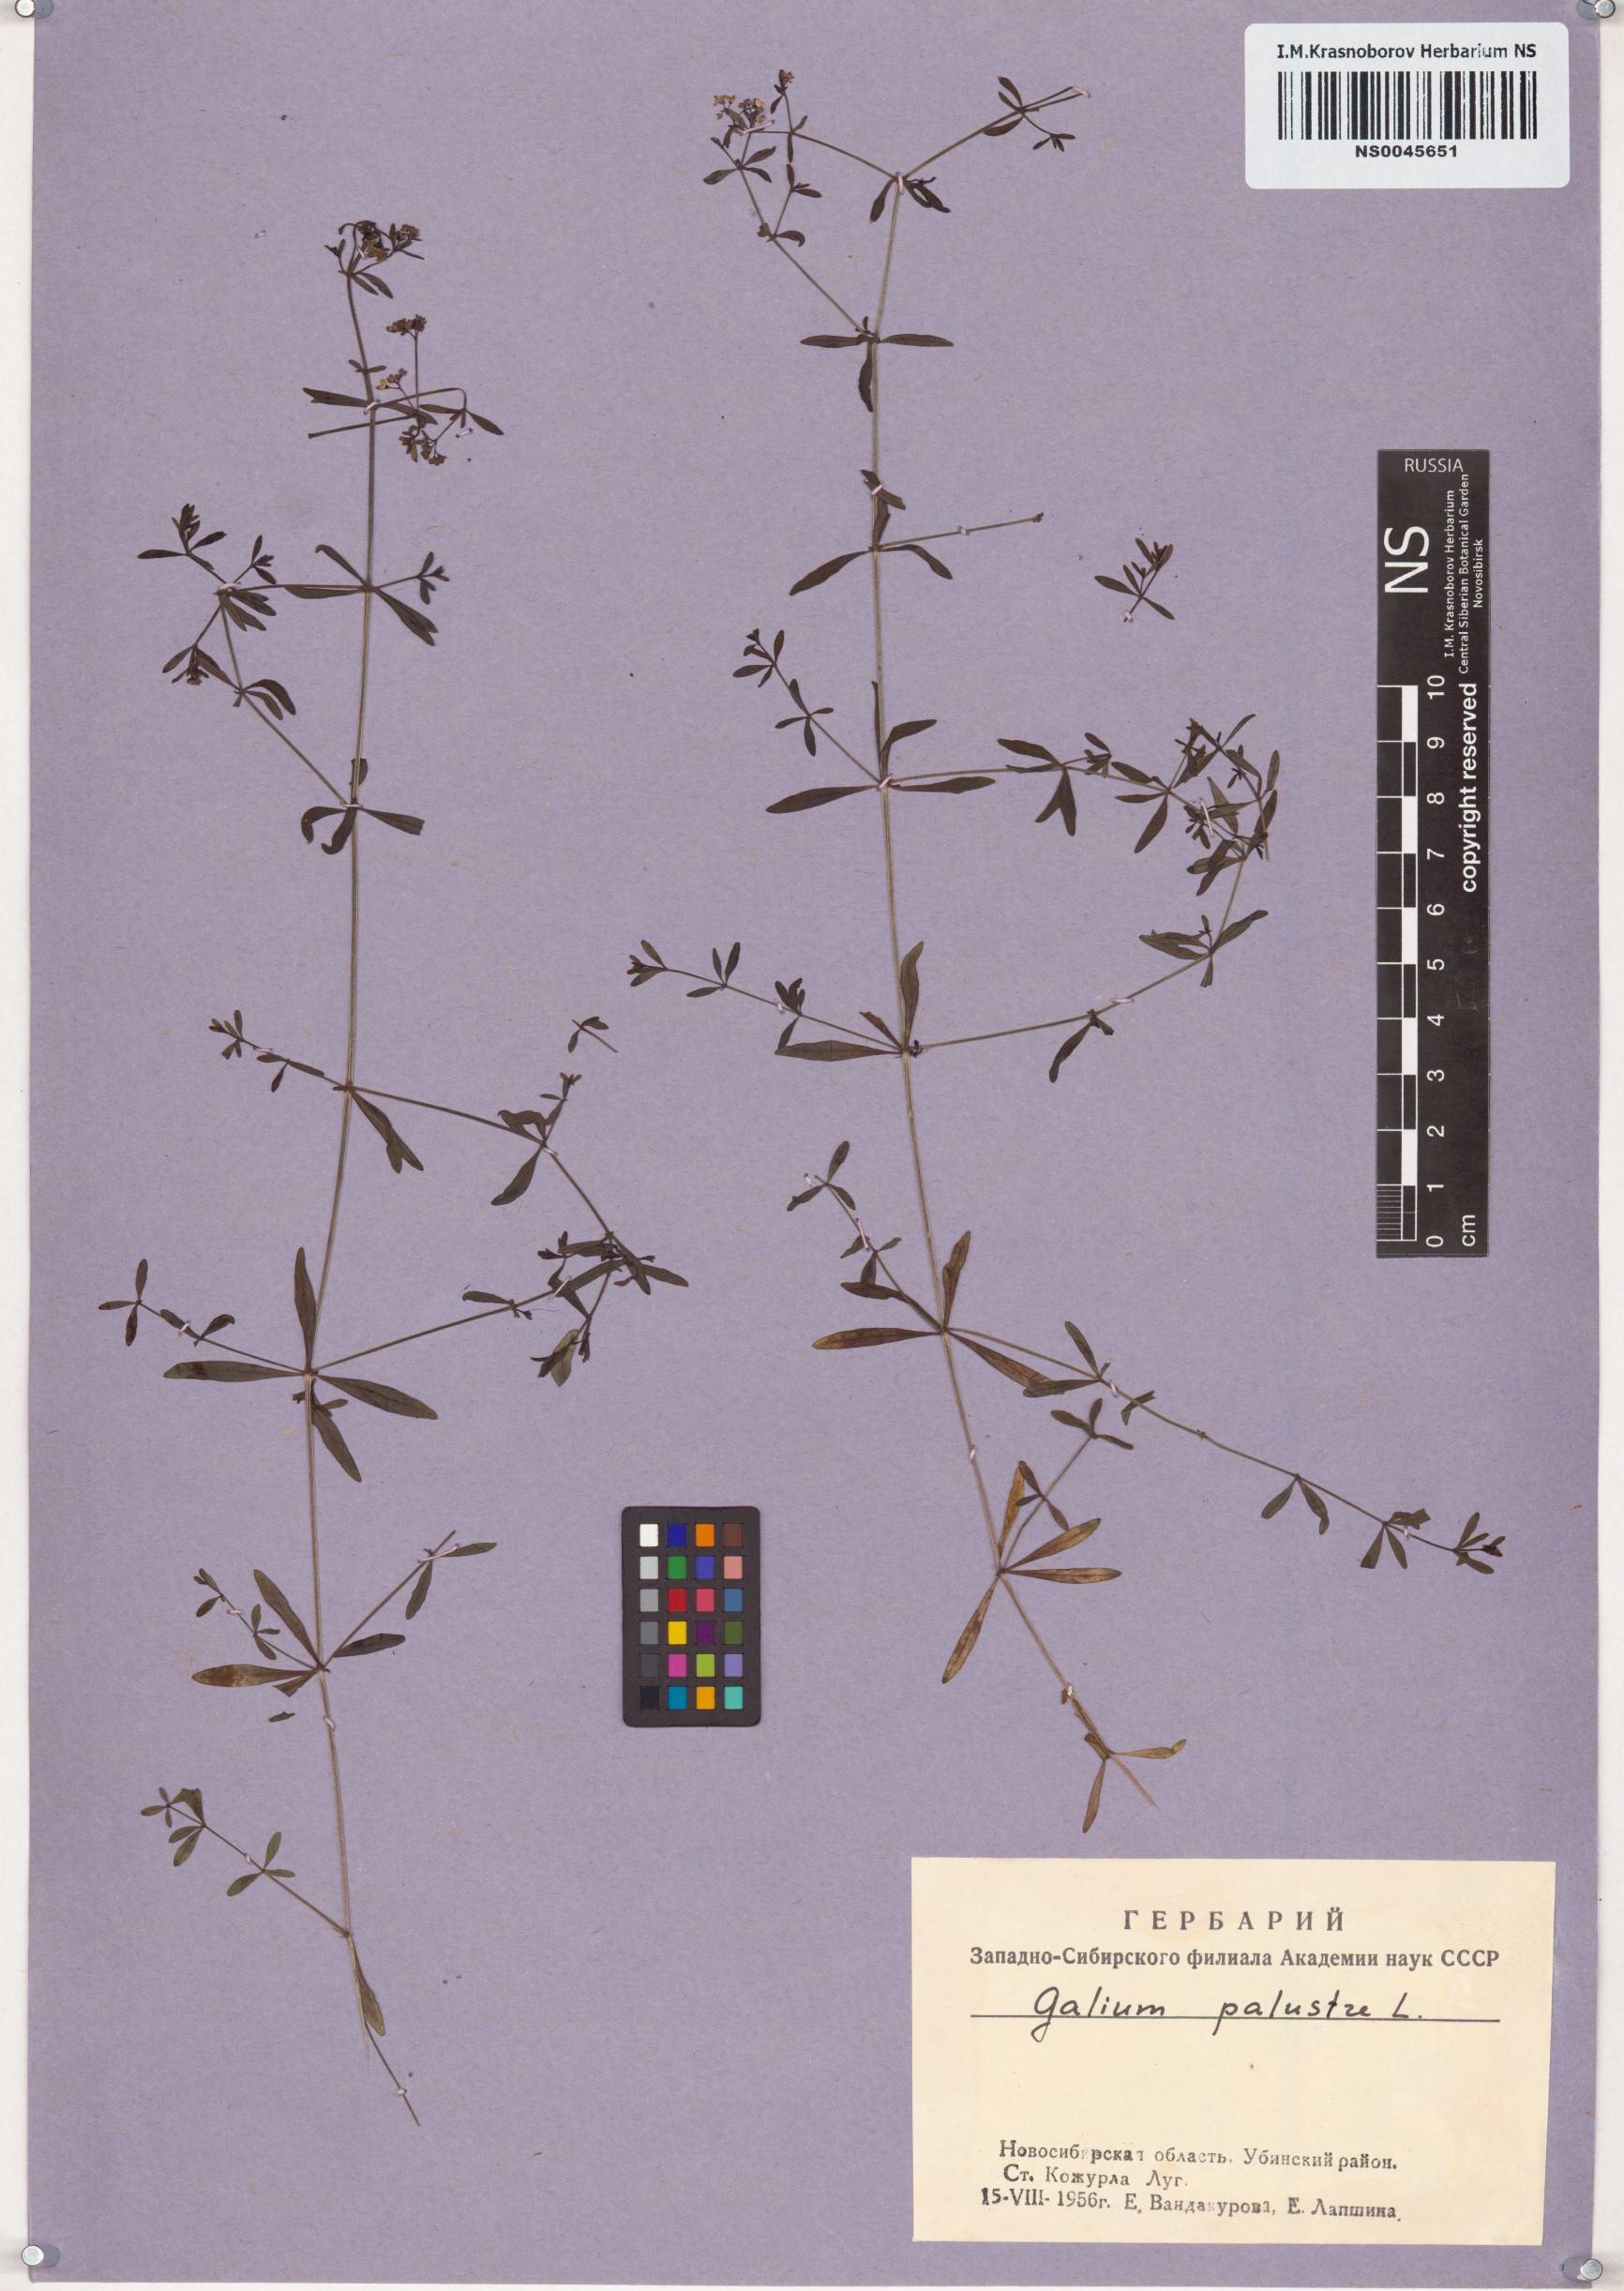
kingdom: Plantae
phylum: Tracheophyta
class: Magnoliopsida
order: Gentianales
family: Rubiaceae
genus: Galium
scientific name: Galium palustre
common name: Common marsh-bedstraw
